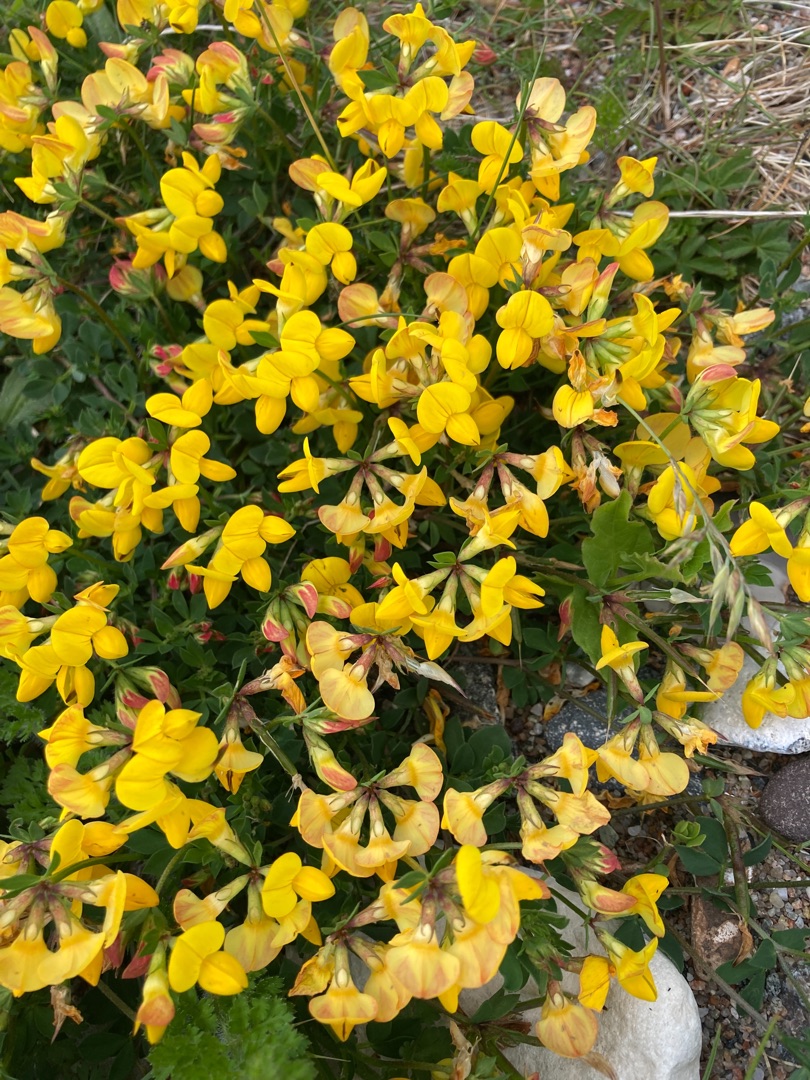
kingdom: Plantae
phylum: Tracheophyta
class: Magnoliopsida
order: Fabales
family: Fabaceae
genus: Lotus
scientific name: Lotus corniculatus
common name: Almindelig kællingetand
